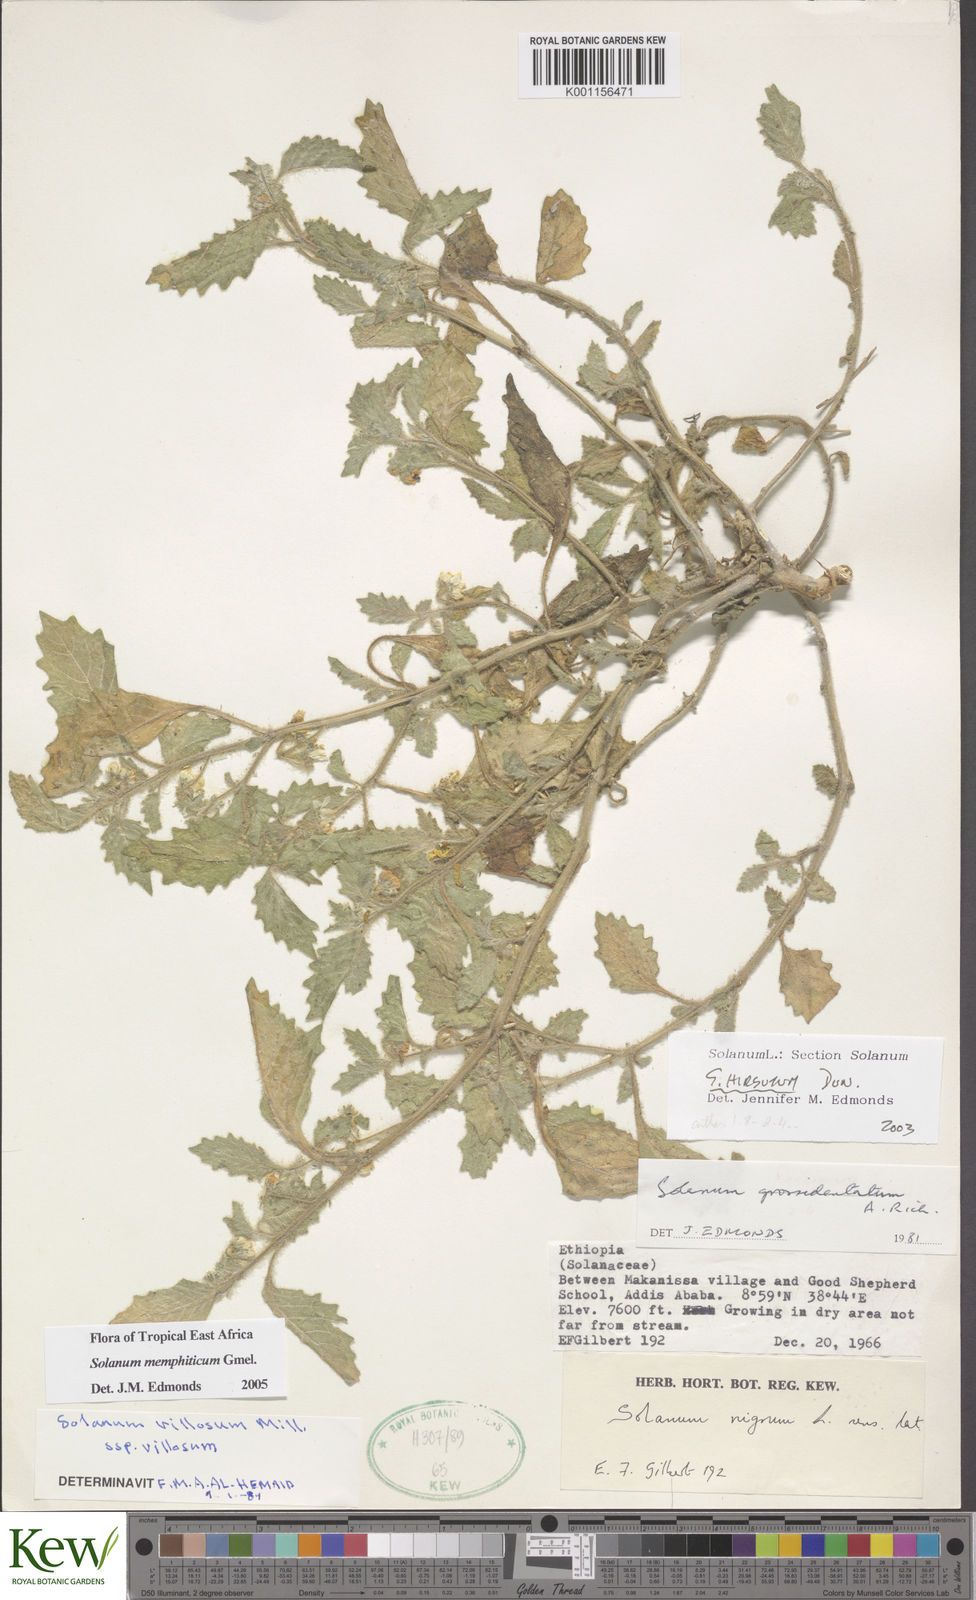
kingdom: Plantae
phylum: Tracheophyta
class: Magnoliopsida
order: Solanales
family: Solanaceae
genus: Solanum
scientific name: Solanum memphiticum
